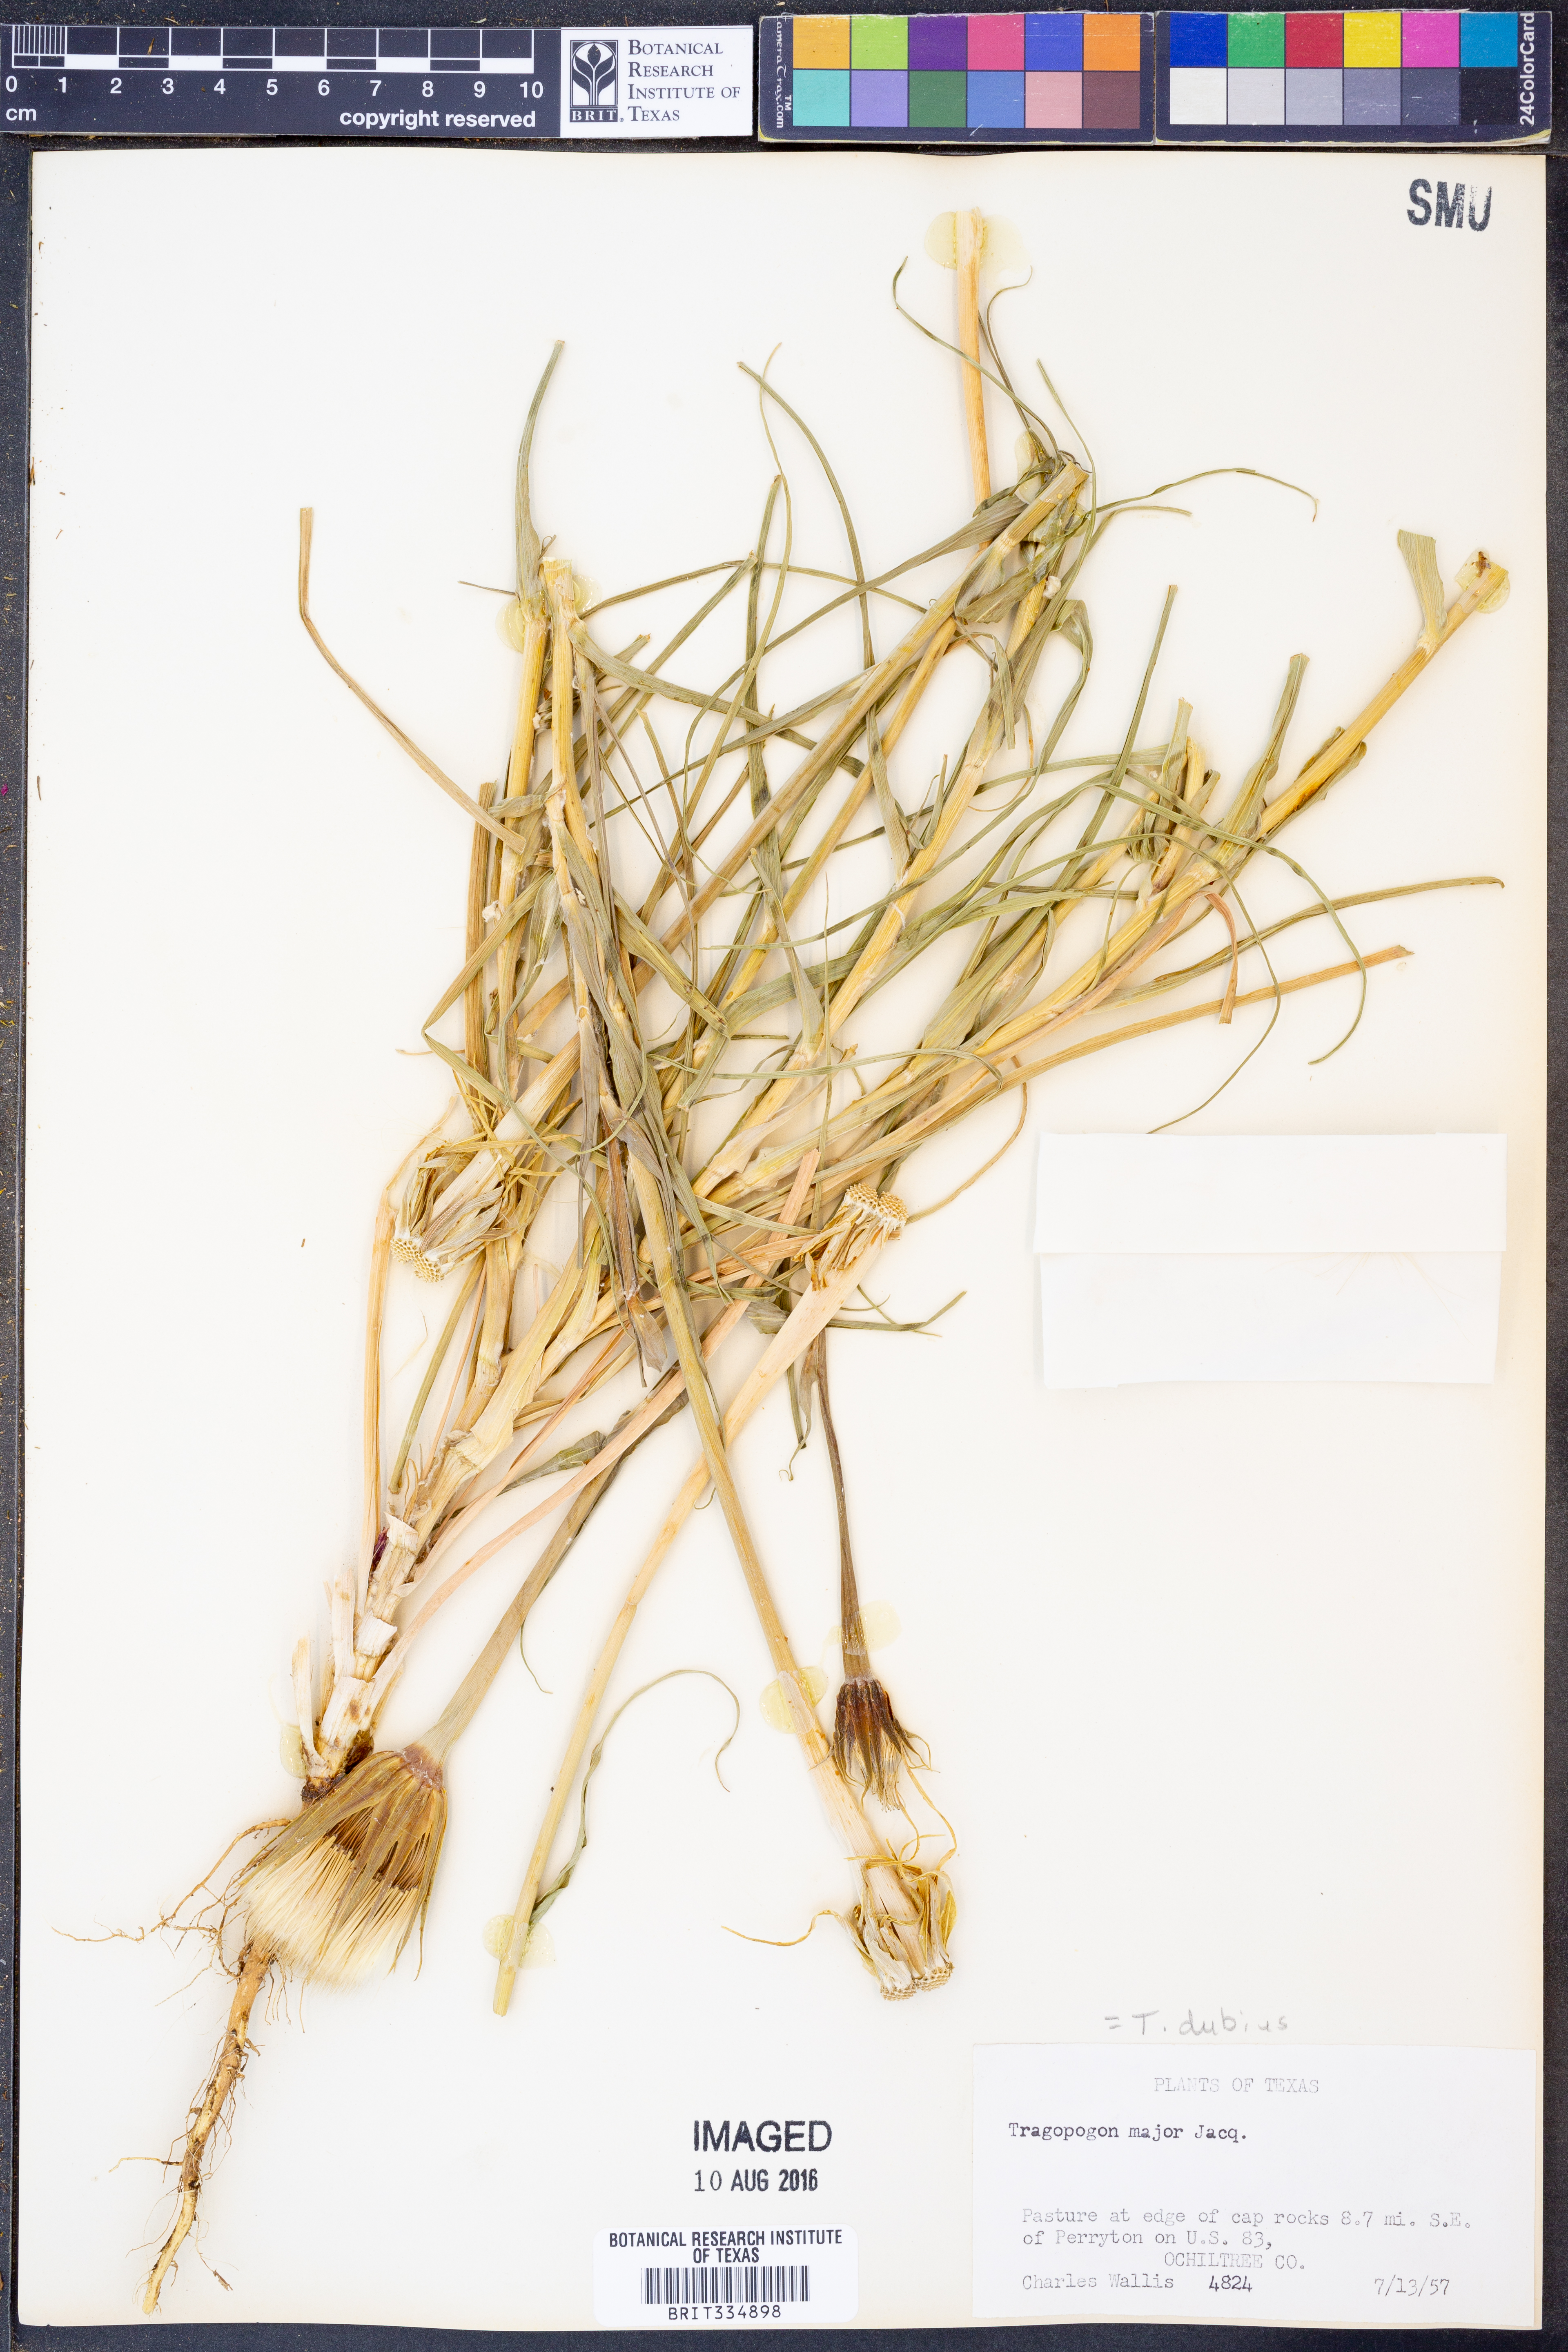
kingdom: Plantae
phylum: Tracheophyta
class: Magnoliopsida
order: Asterales
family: Asteraceae
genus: Tragopogon
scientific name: Tragopogon dubius
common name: Yellow salsify
